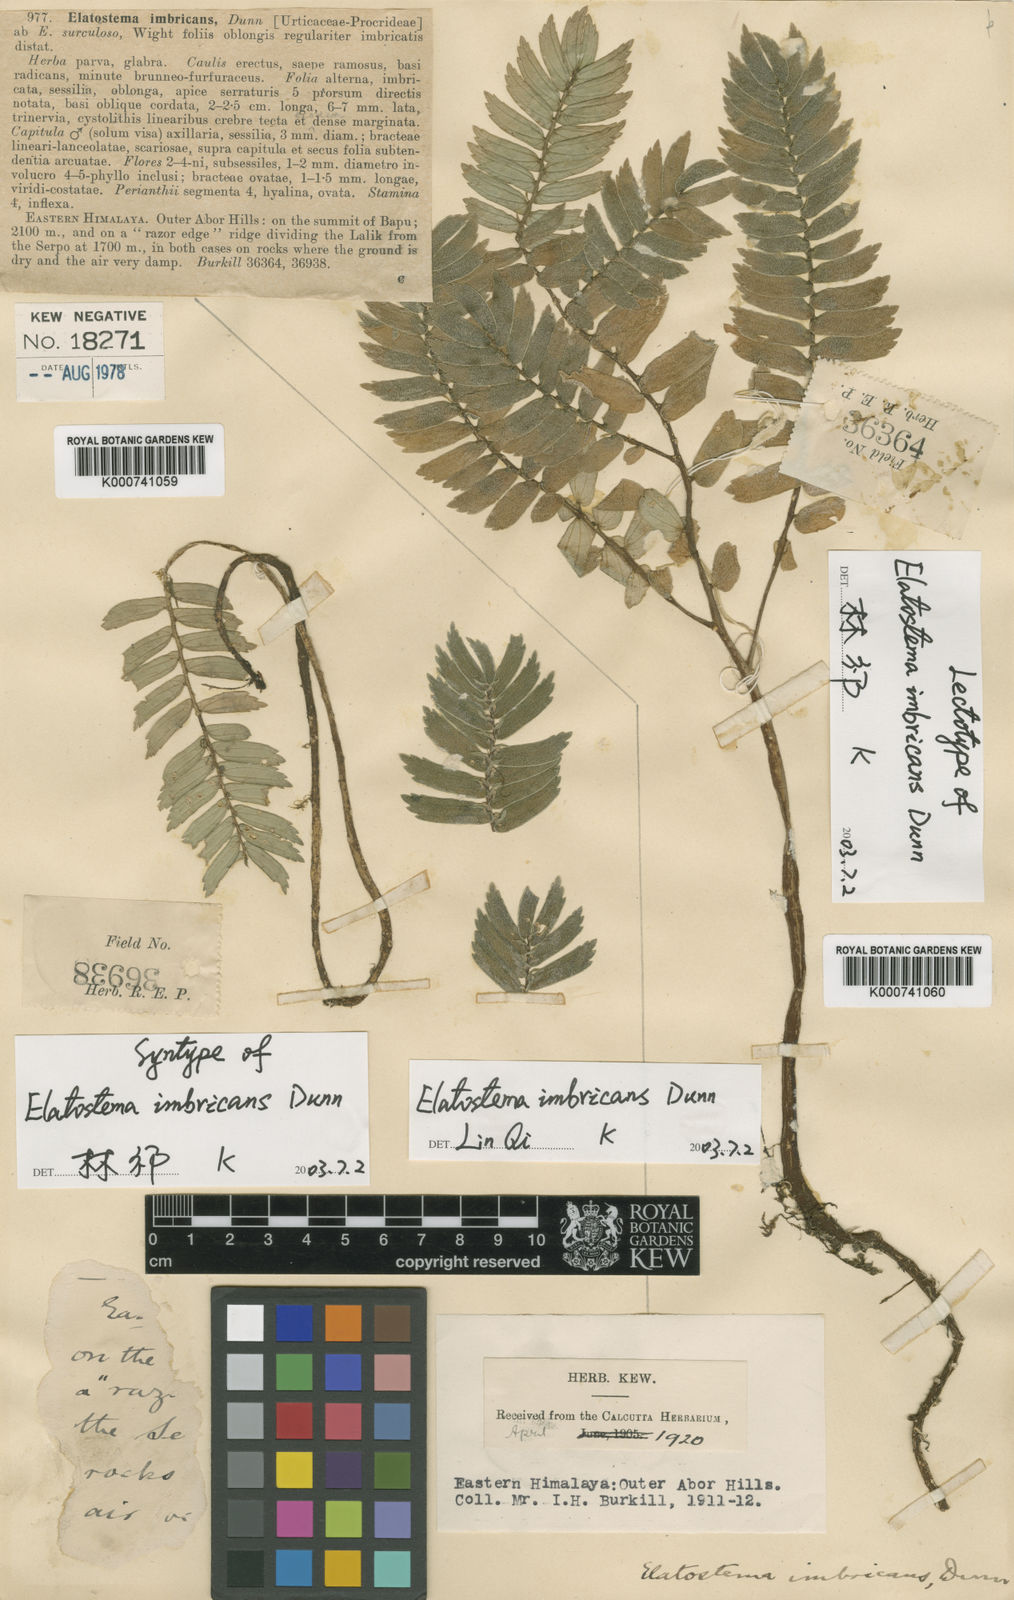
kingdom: Plantae
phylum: Tracheophyta
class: Magnoliopsida
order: Rosales
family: Urticaceae
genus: Elatostema
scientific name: Elatostema imbricans
